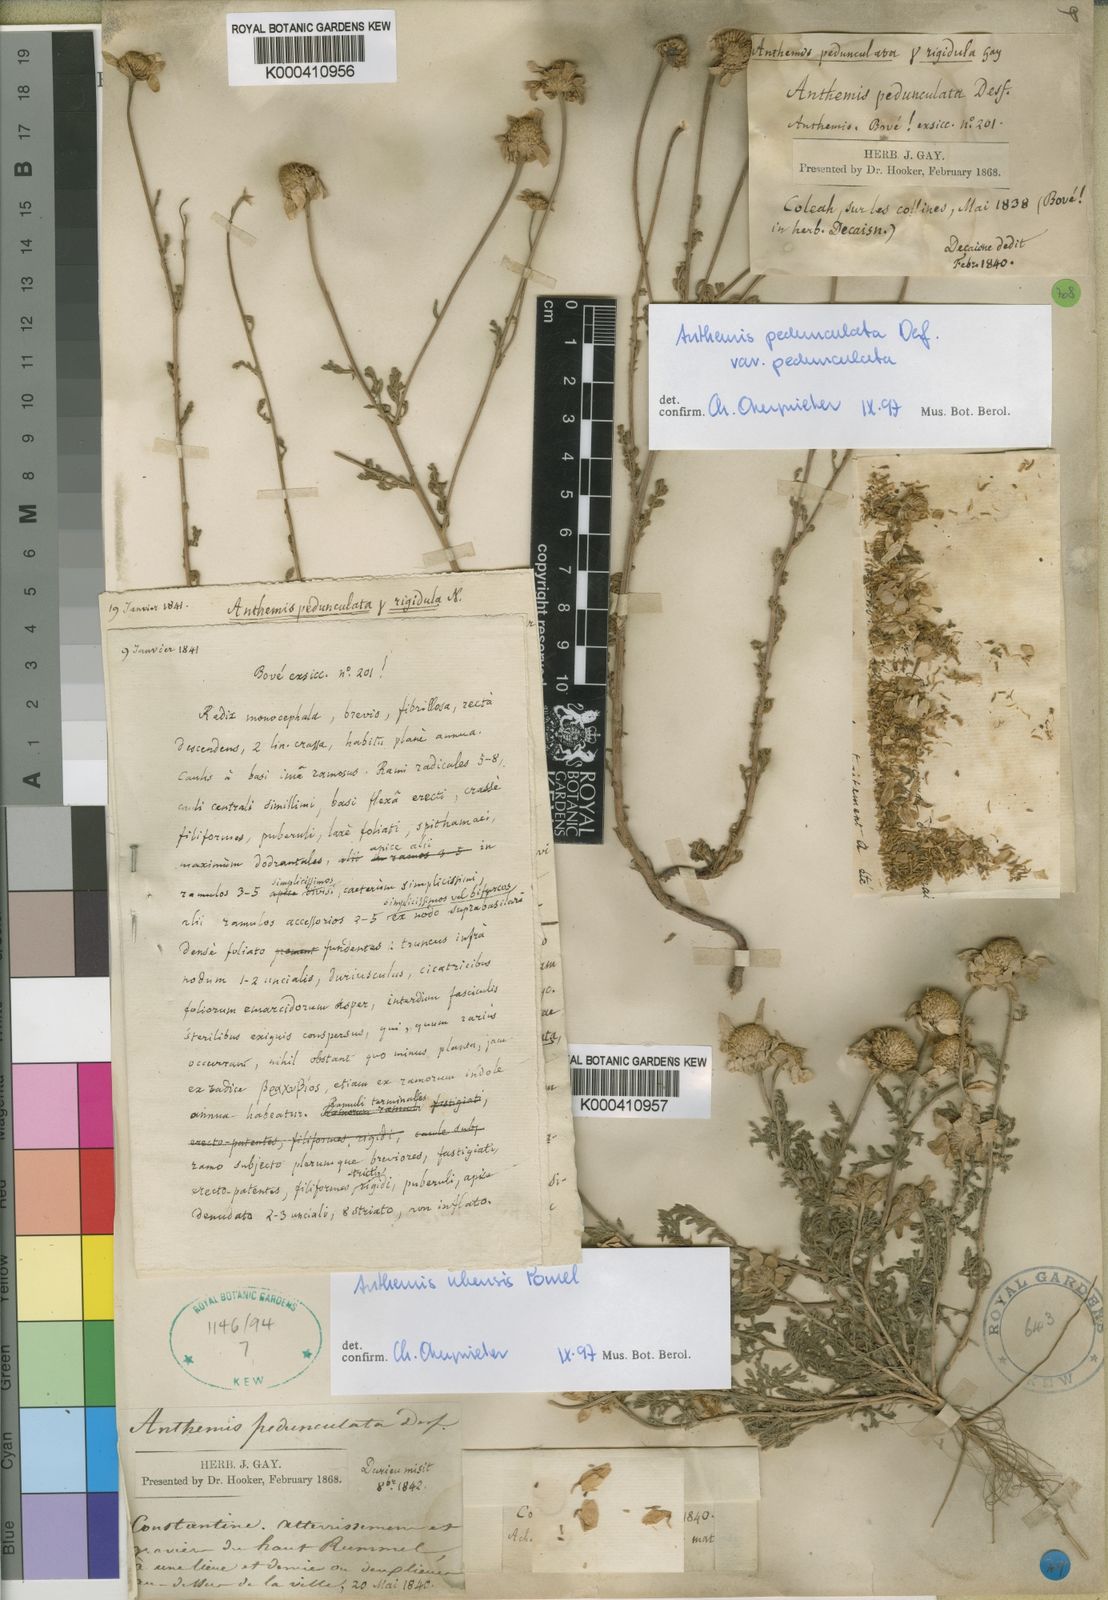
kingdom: Plantae
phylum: Tracheophyta
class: Magnoliopsida
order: Asterales
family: Asteraceae
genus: Anthemis
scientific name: Anthemis pedunculata
